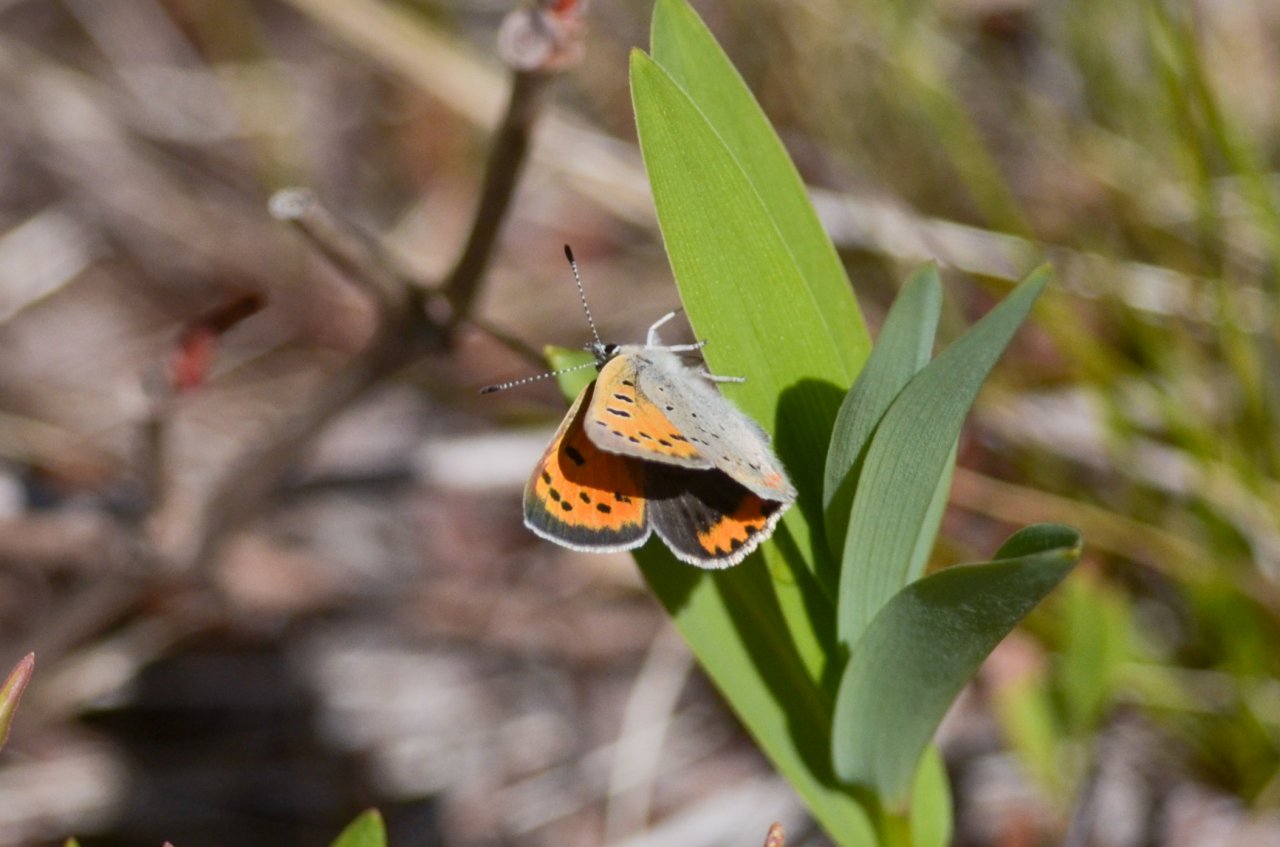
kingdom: Animalia
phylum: Arthropoda
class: Insecta
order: Lepidoptera
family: Lycaenidae
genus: Lycaena
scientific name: Lycaena phlaeas
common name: American Copper
